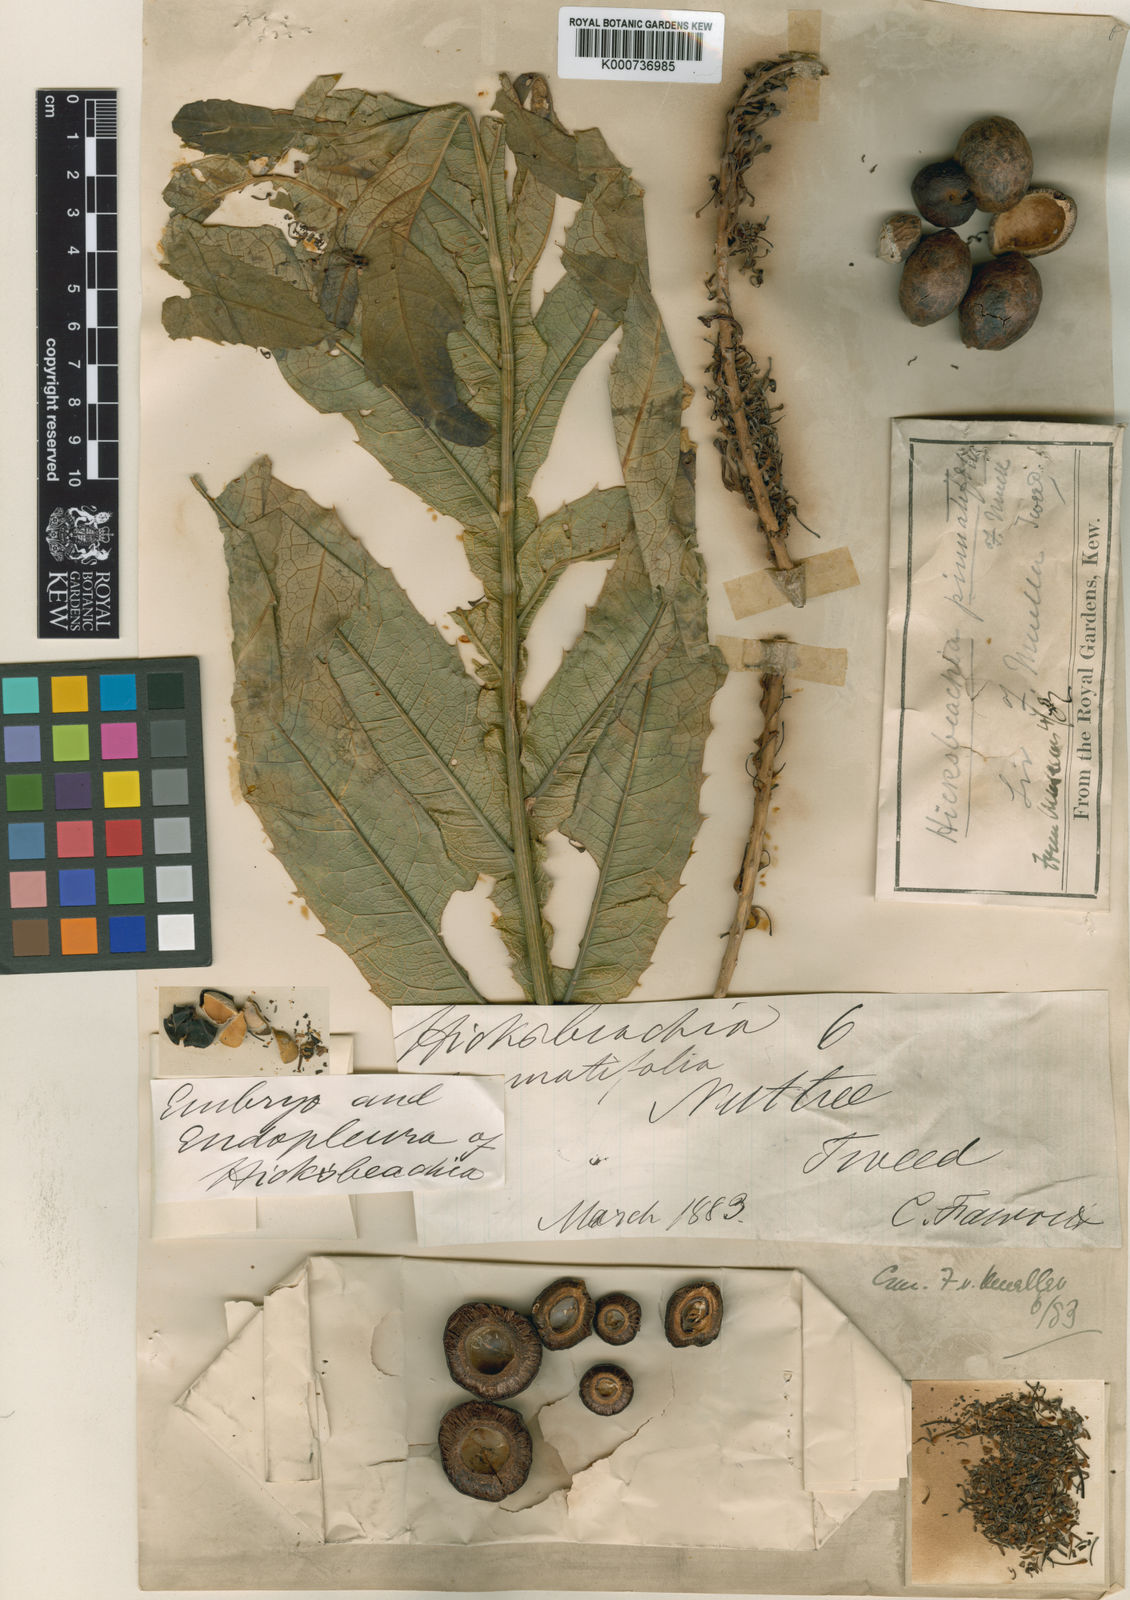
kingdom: Plantae
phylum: Tracheophyta
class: Magnoliopsida
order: Proteales
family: Proteaceae
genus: Hicksbeachia
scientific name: Hicksbeachia pinnatifolia
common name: Beefnut
